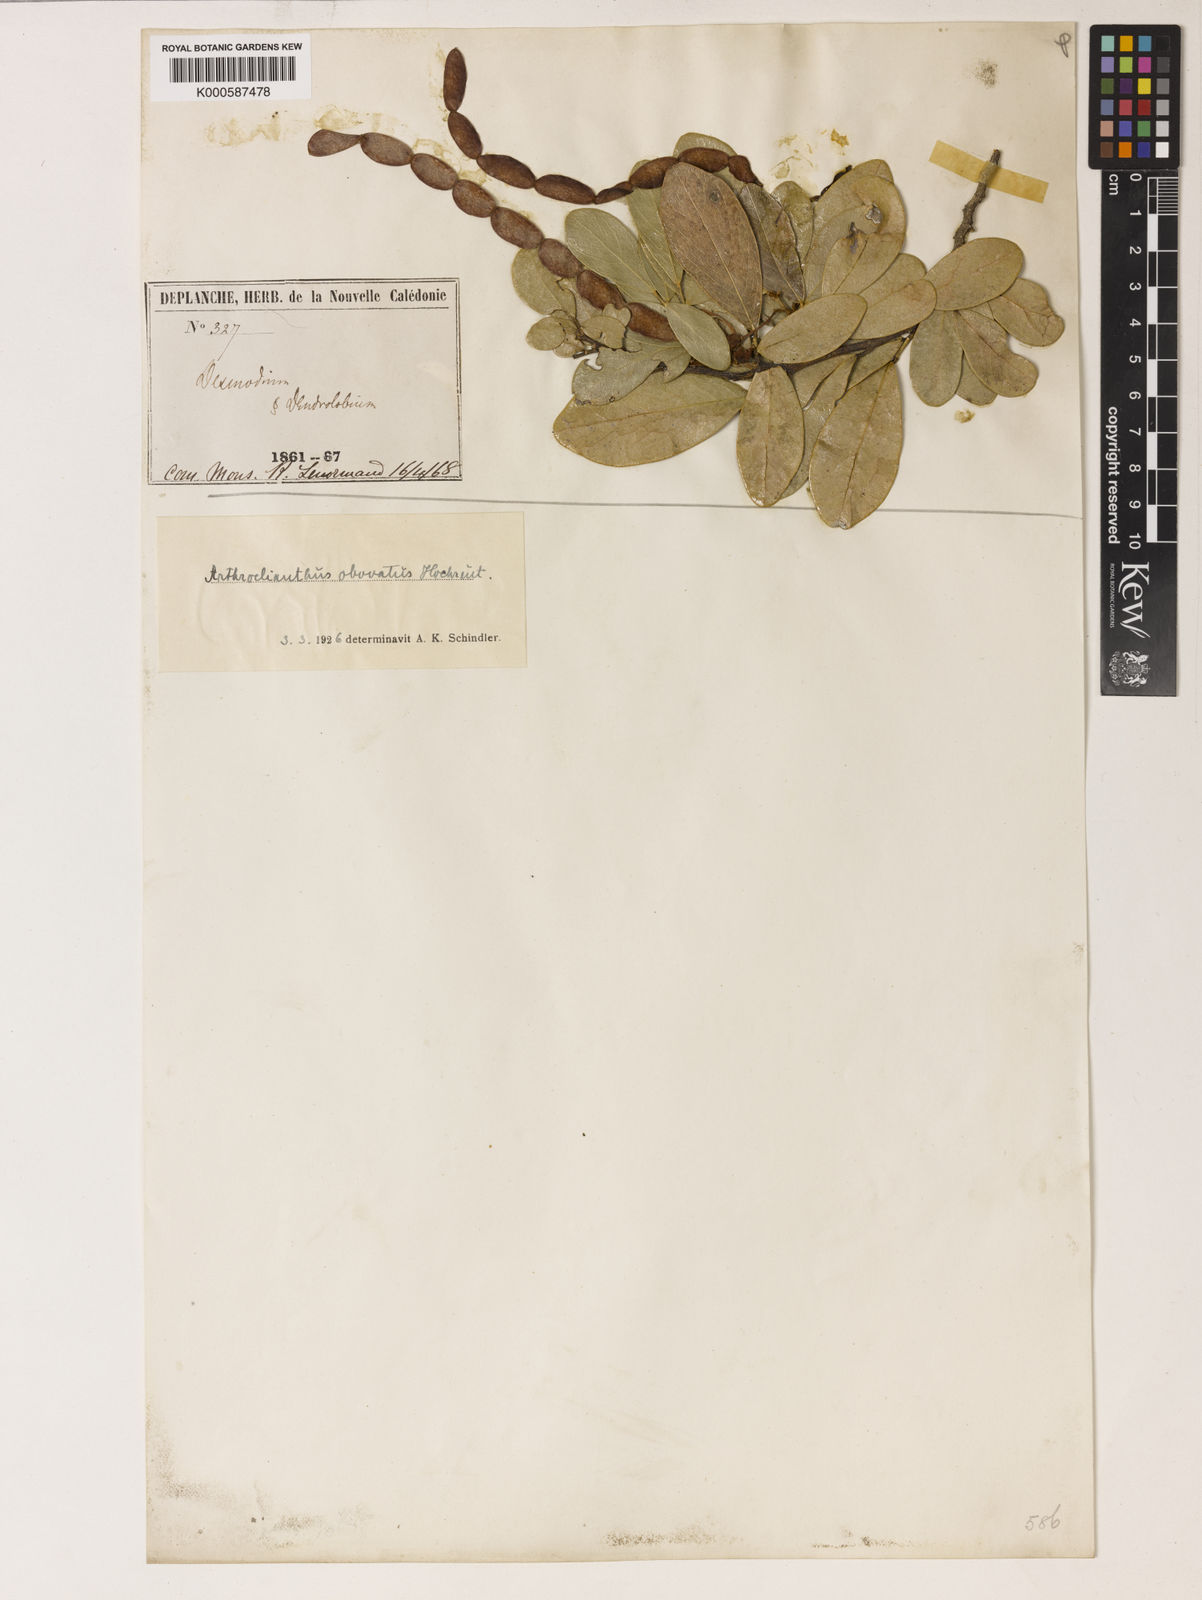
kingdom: Plantae
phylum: Tracheophyta
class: Magnoliopsida
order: Fabales
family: Fabaceae
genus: Arthroclianthus
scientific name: Arthroclianthus obovatus
